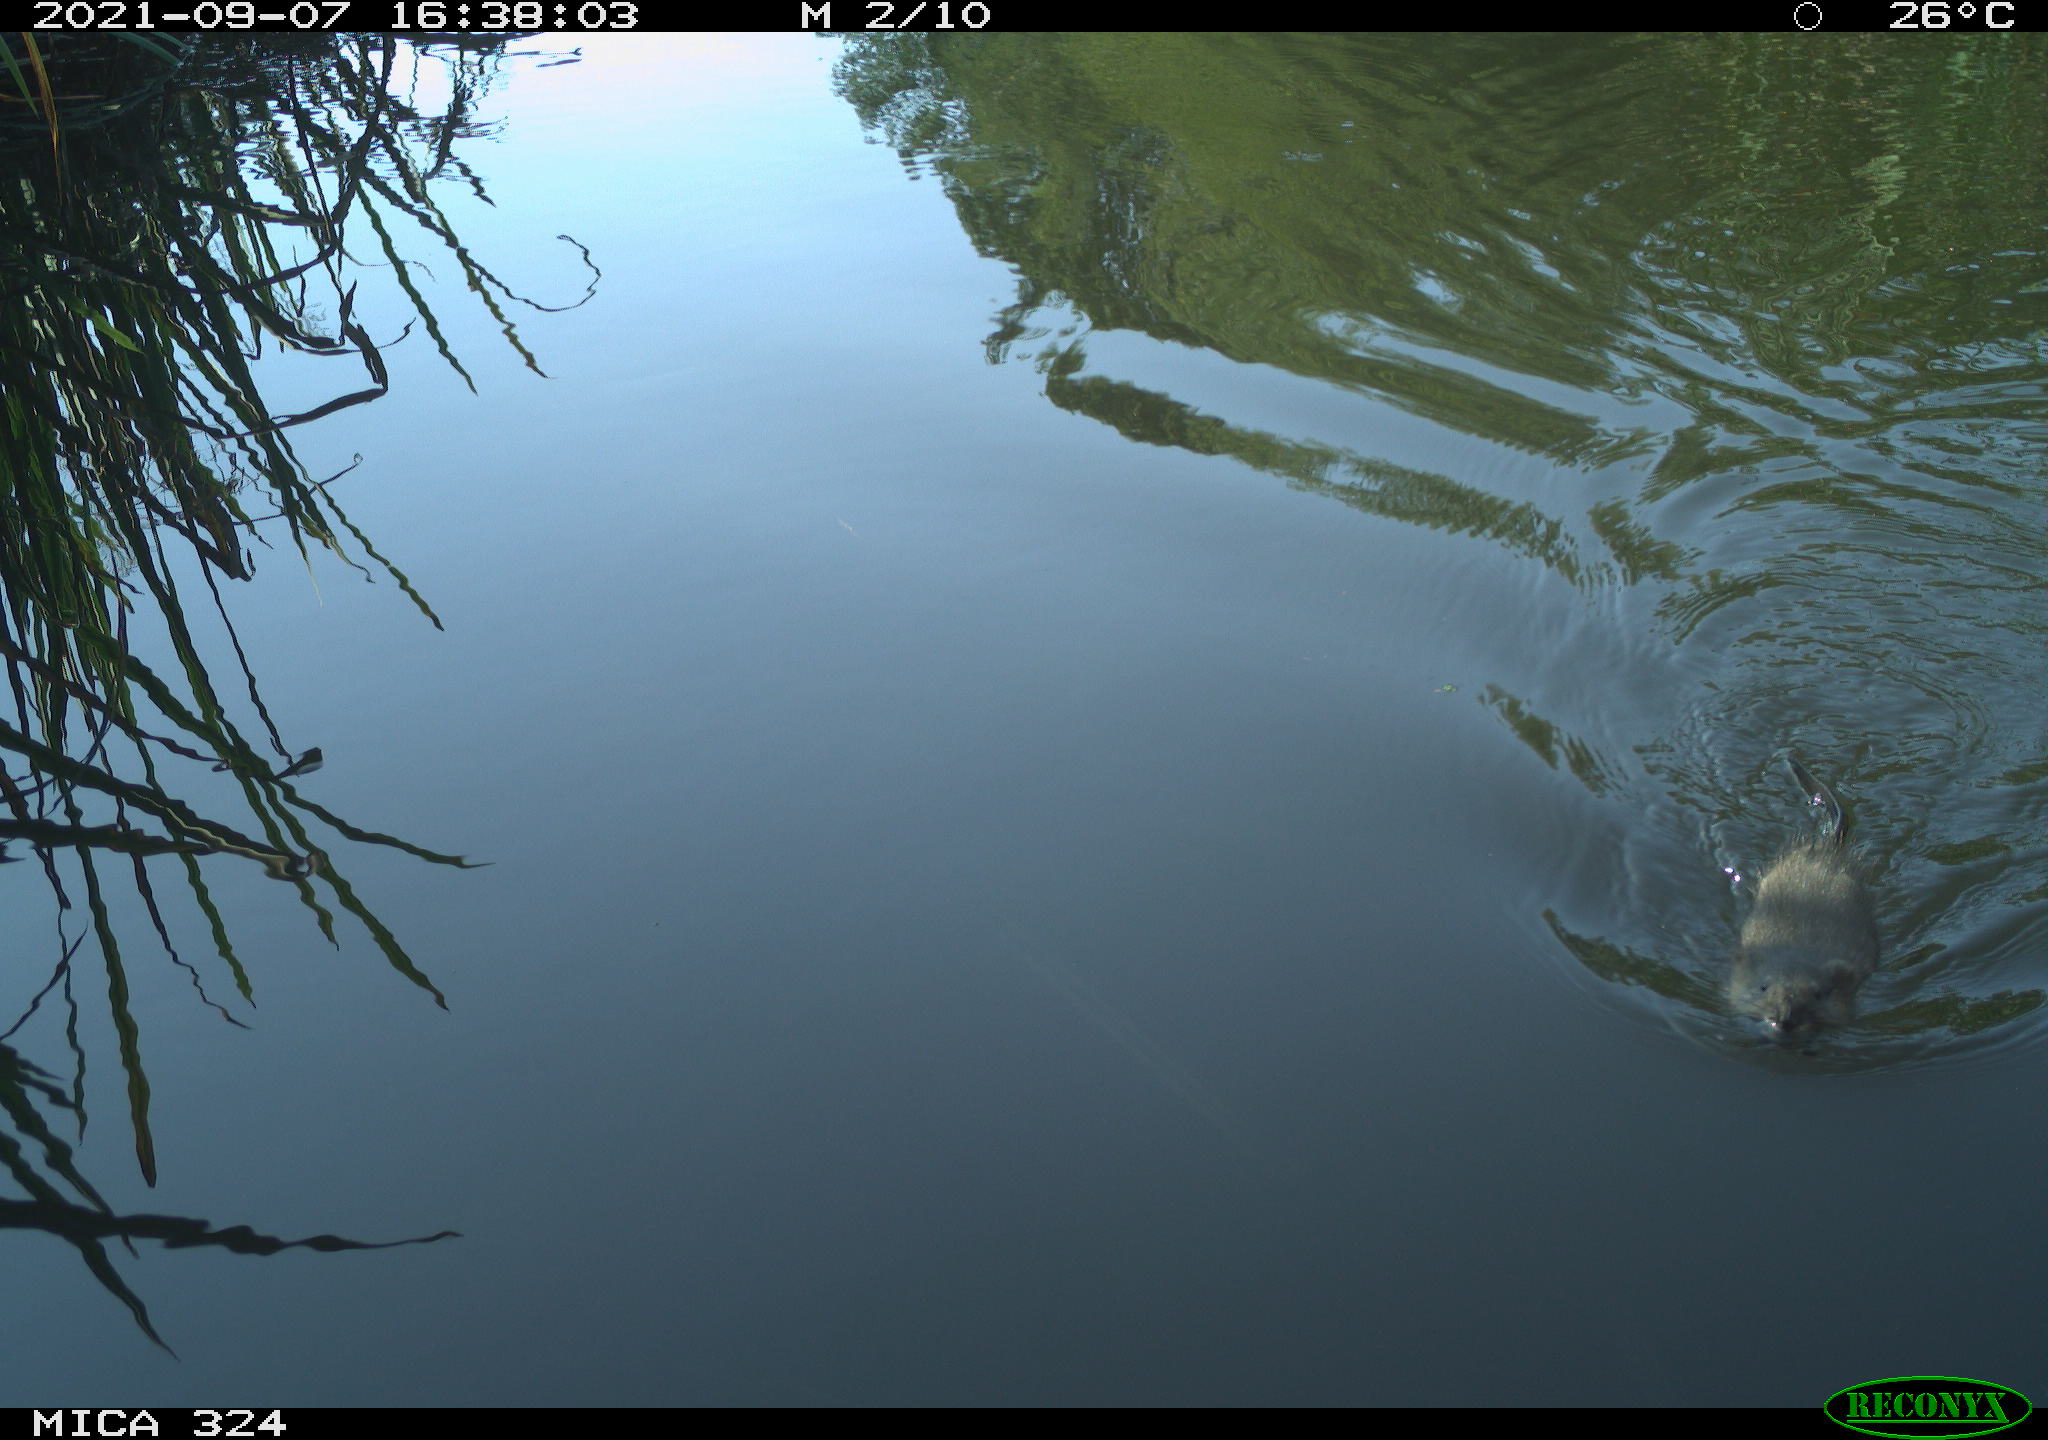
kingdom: Animalia
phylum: Chordata
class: Mammalia
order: Rodentia
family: Cricetidae
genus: Ondatra
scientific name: Ondatra zibethicus
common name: Muskrat
